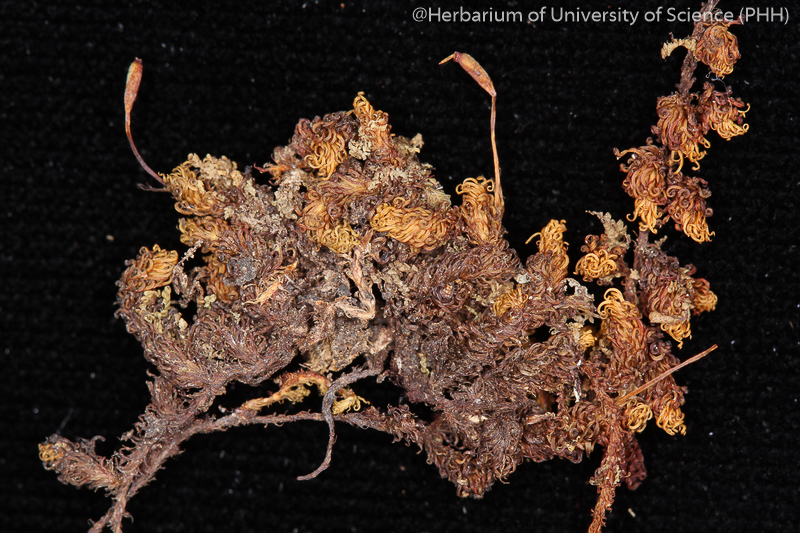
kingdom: Plantae
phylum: Bryophyta
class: Bryopsida
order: Orthotrichales
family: Orthotrichaceae
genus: Macromitrium
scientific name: Macromitrium nepalense
